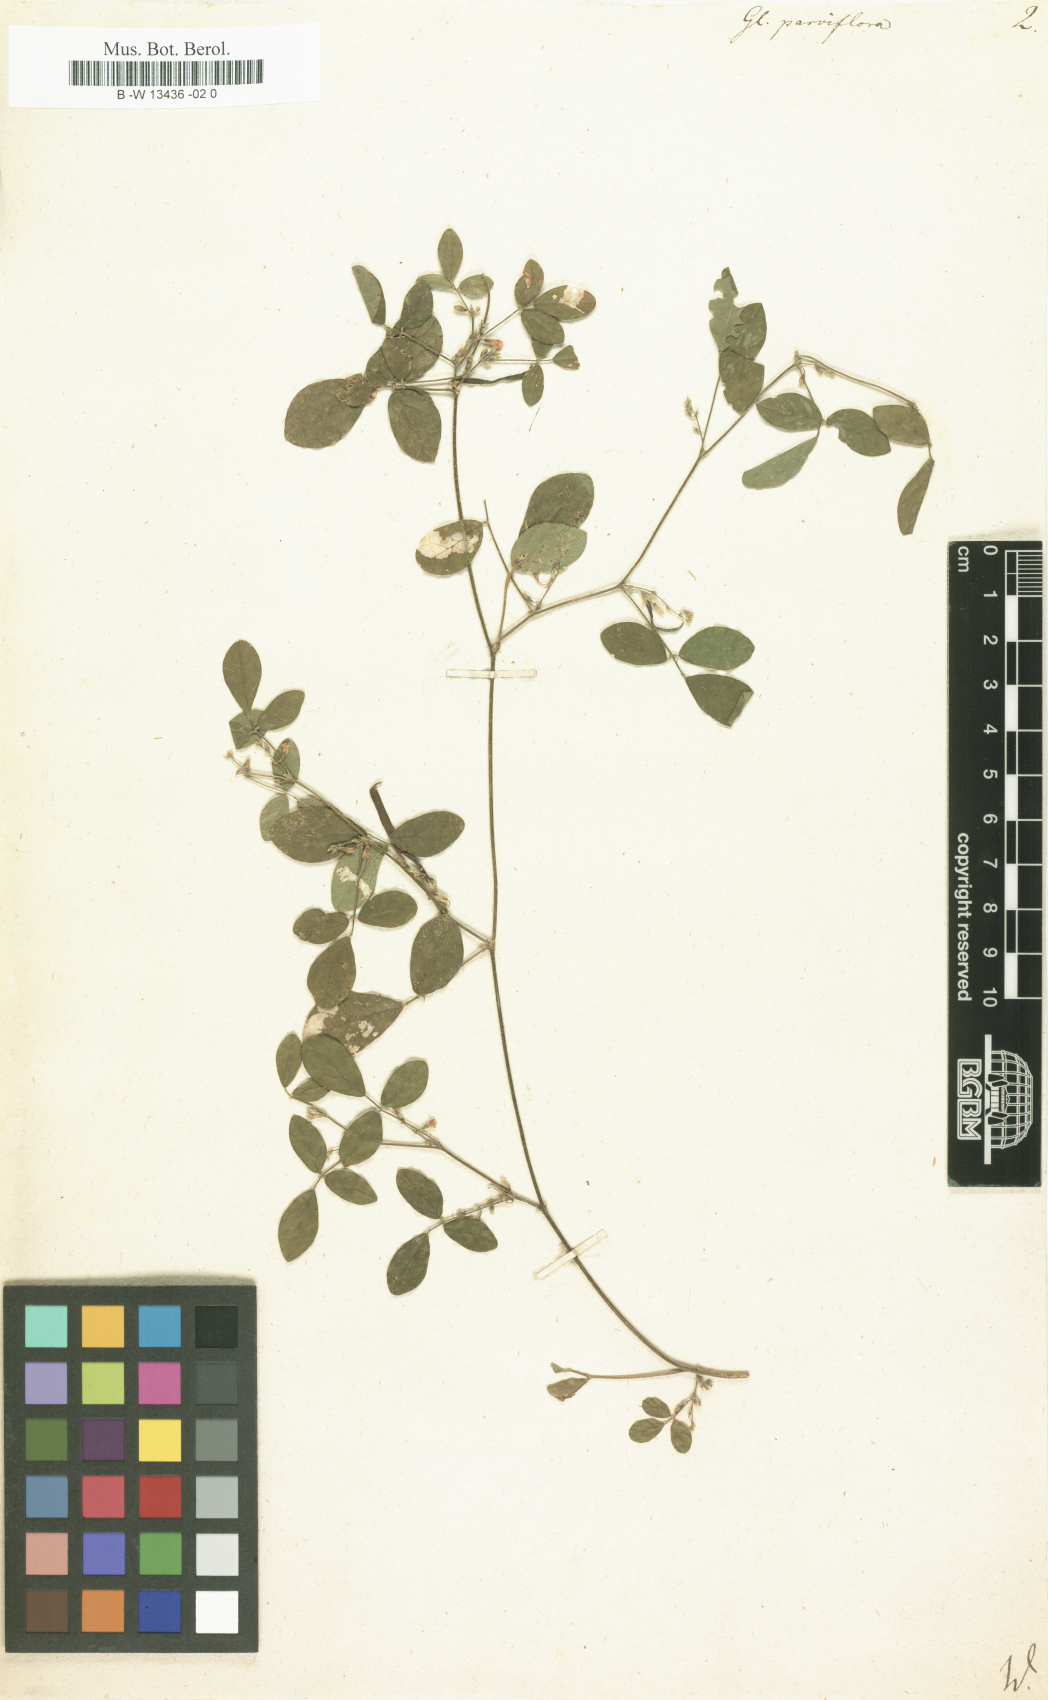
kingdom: Plantae
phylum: Tracheophyta
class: Magnoliopsida
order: Fabales
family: Fabaceae
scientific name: Fabaceae
